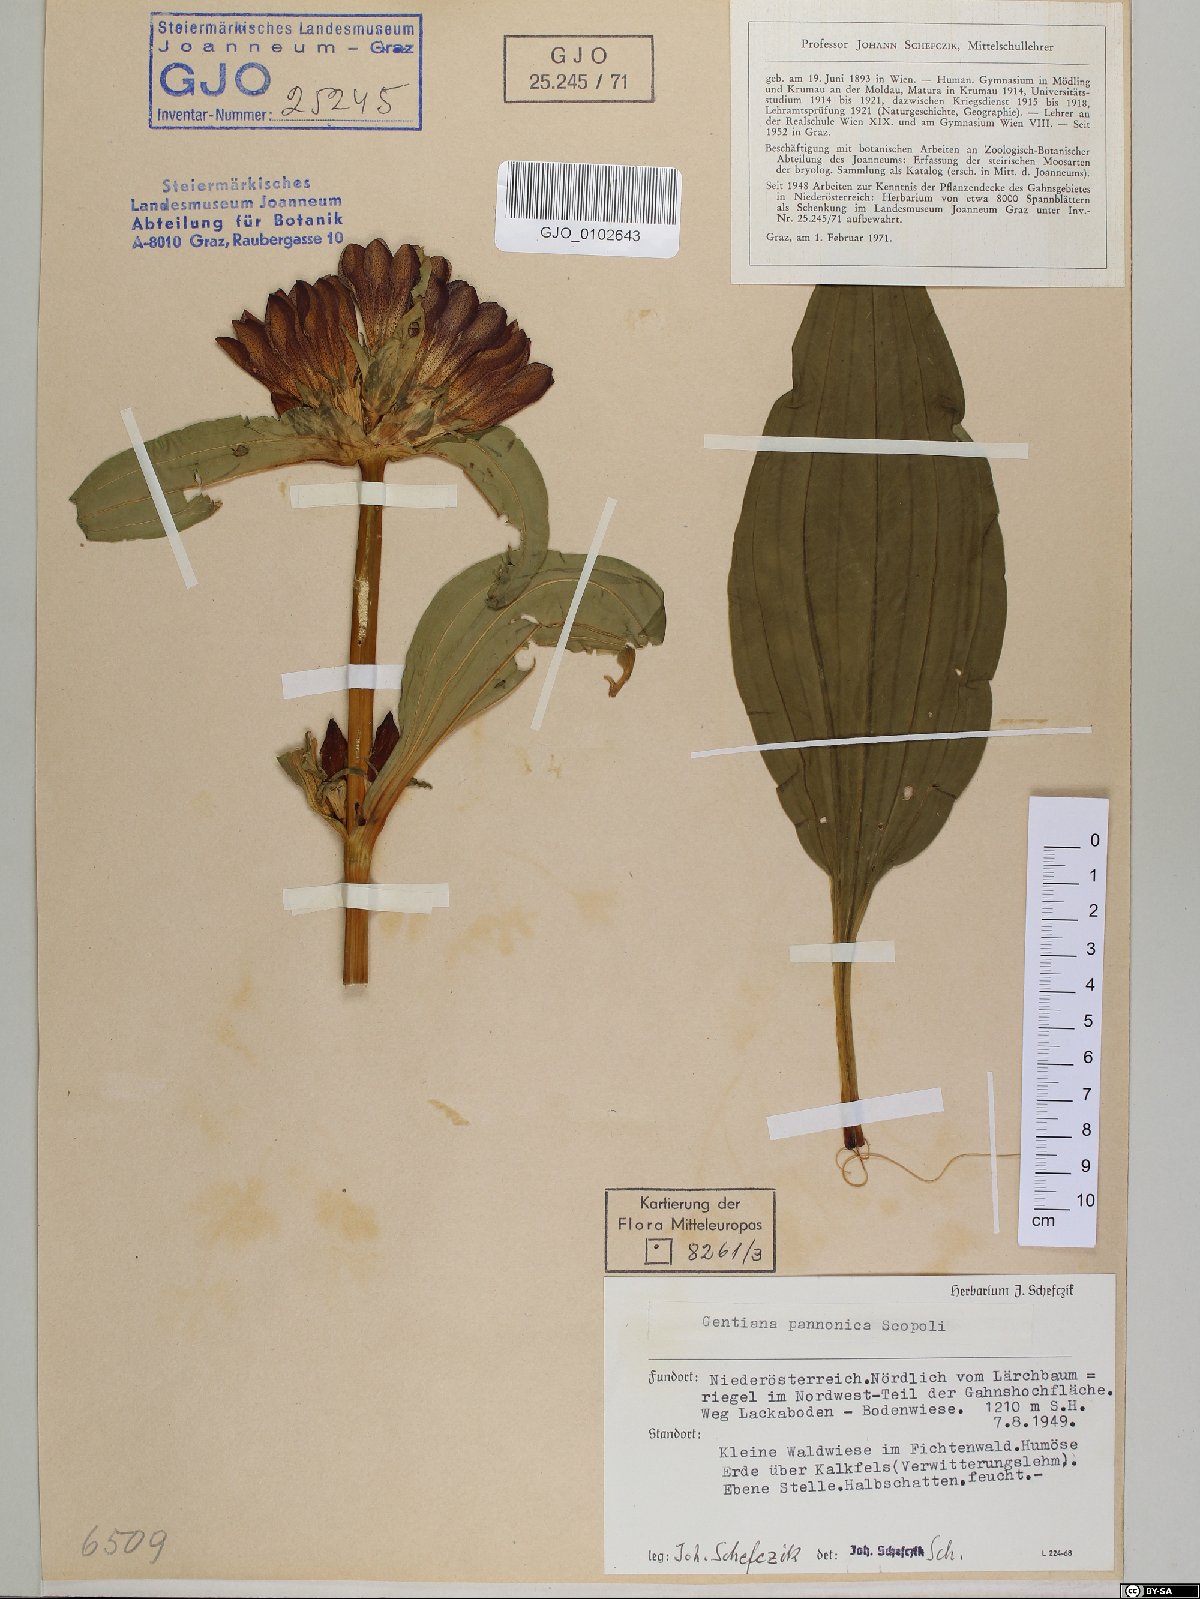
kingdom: Plantae
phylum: Tracheophyta
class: Magnoliopsida
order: Gentianales
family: Gentianaceae
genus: Gentiana
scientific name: Gentiana pannonica
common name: Hungarian gentian
